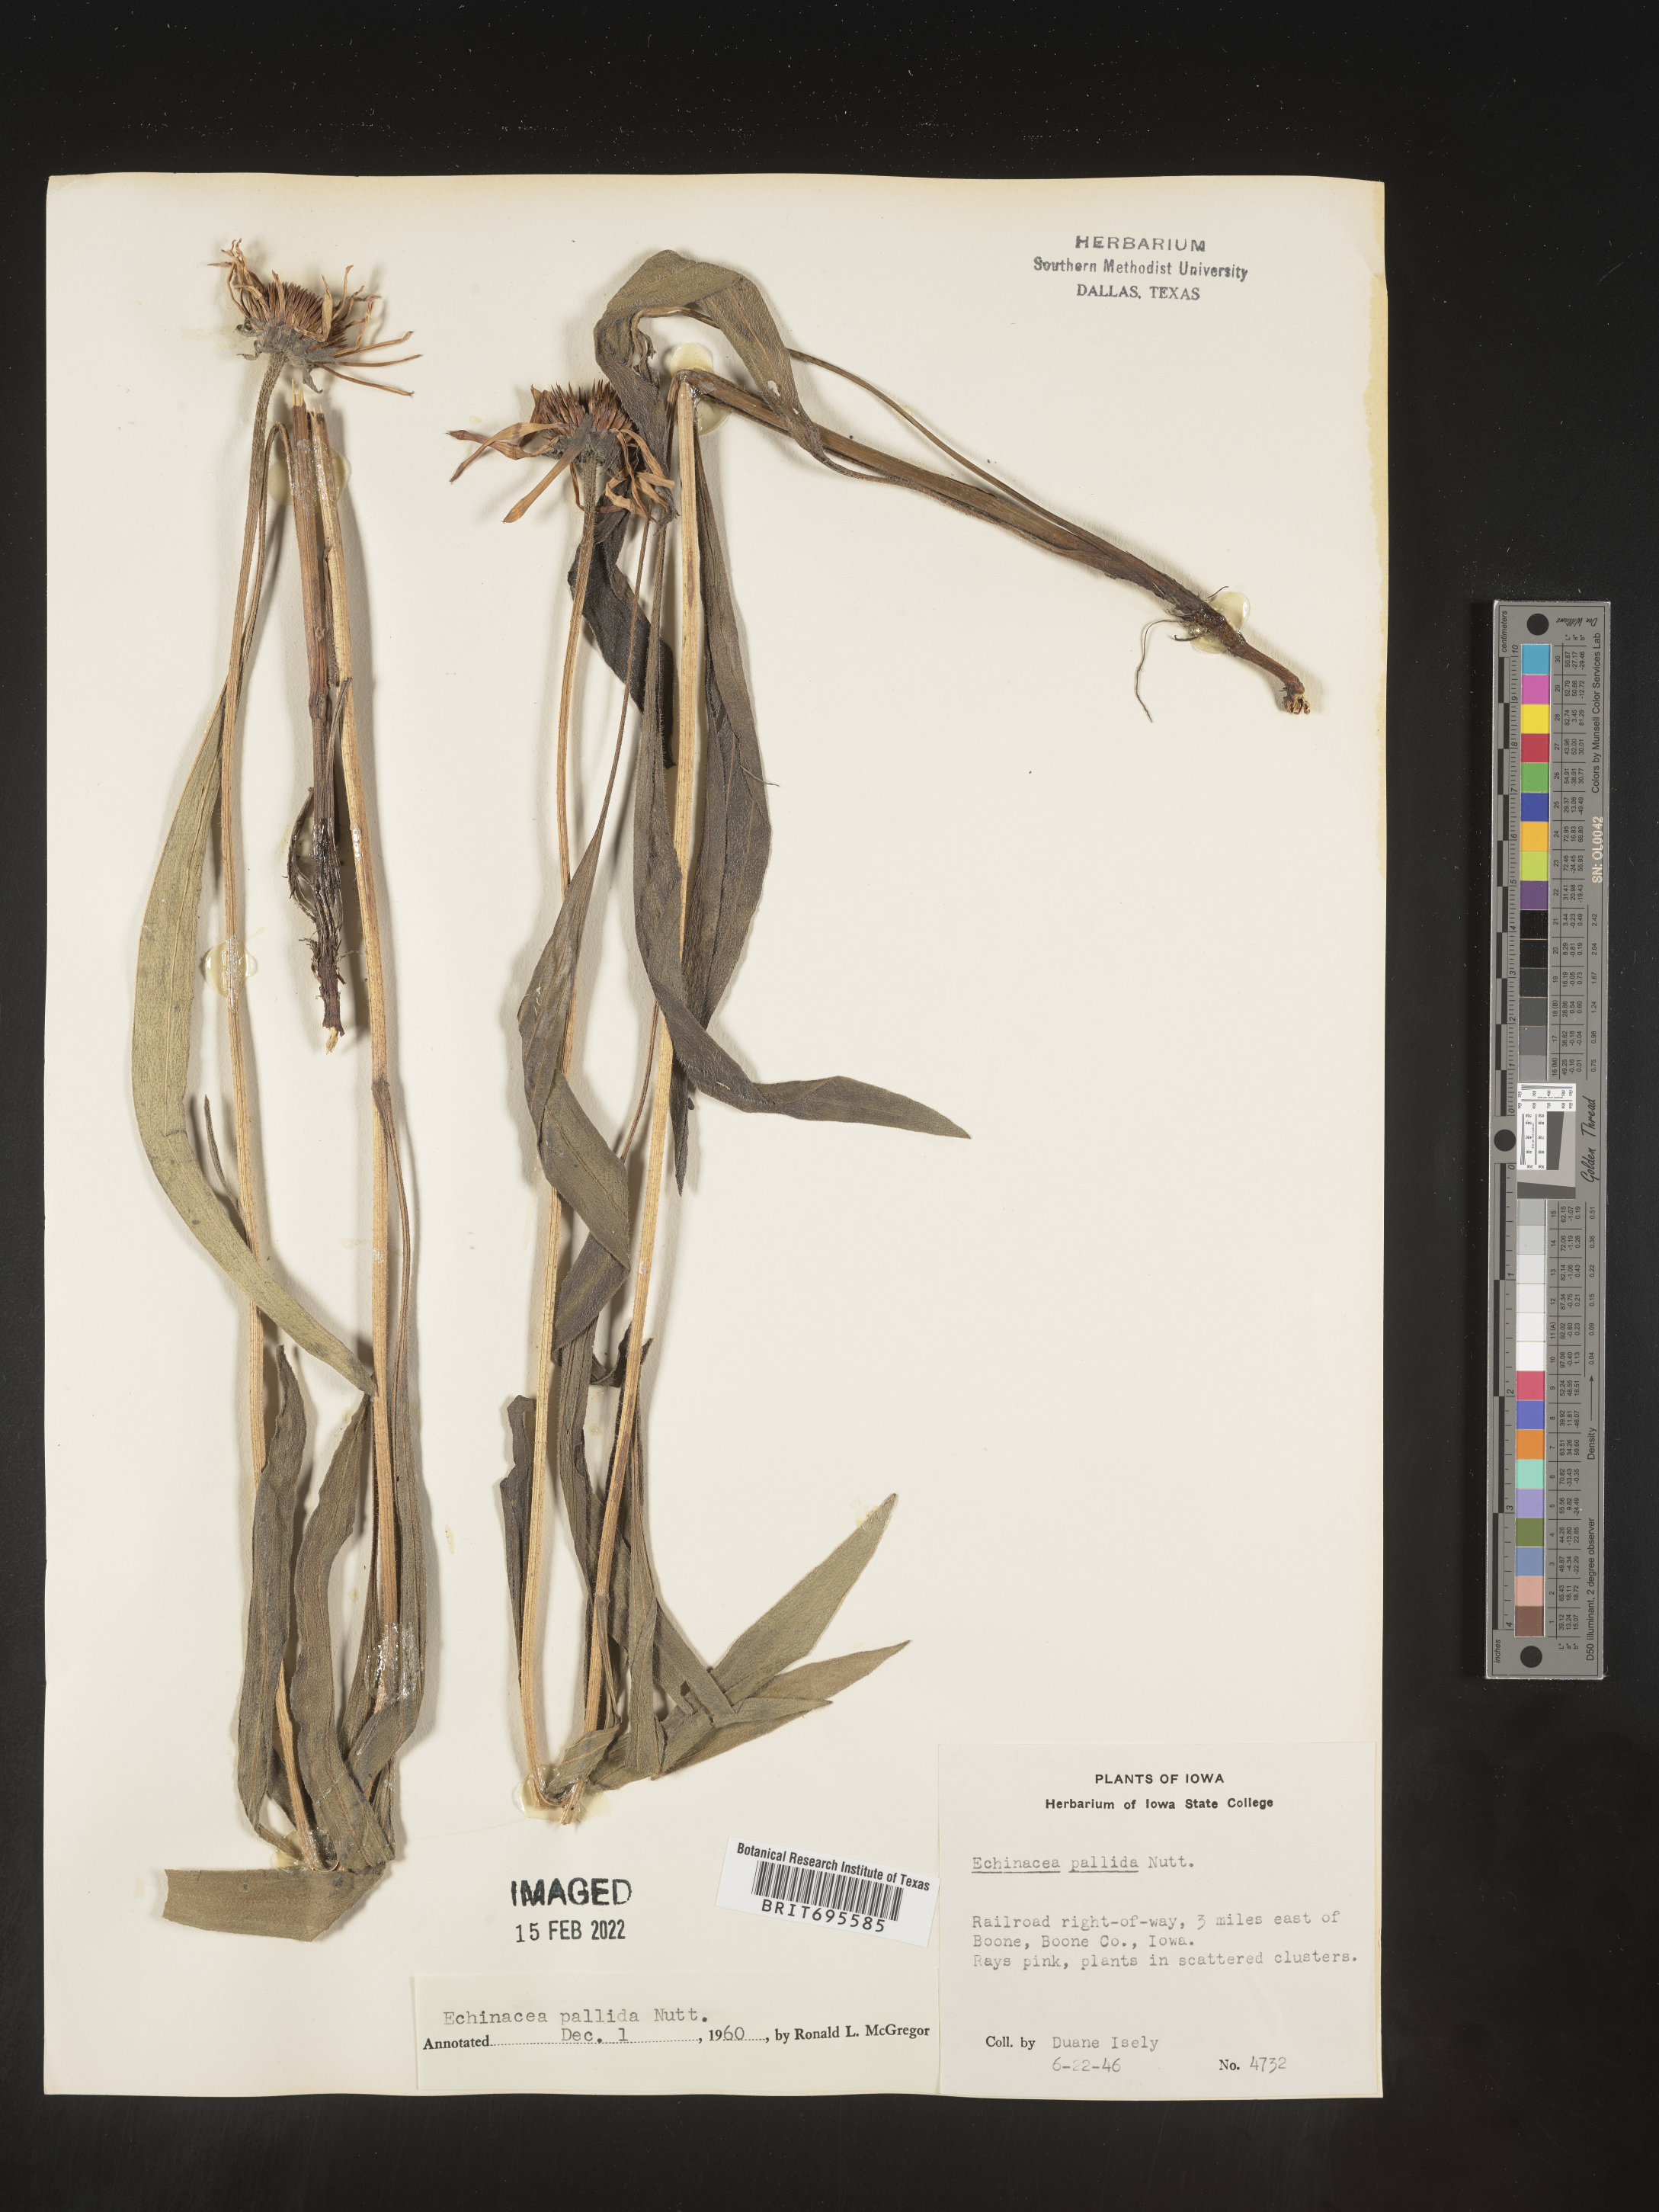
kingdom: Plantae
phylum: Tracheophyta
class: Magnoliopsida
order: Asterales
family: Asteraceae
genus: Echinacea
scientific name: Echinacea pallida
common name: Pale echinacea
